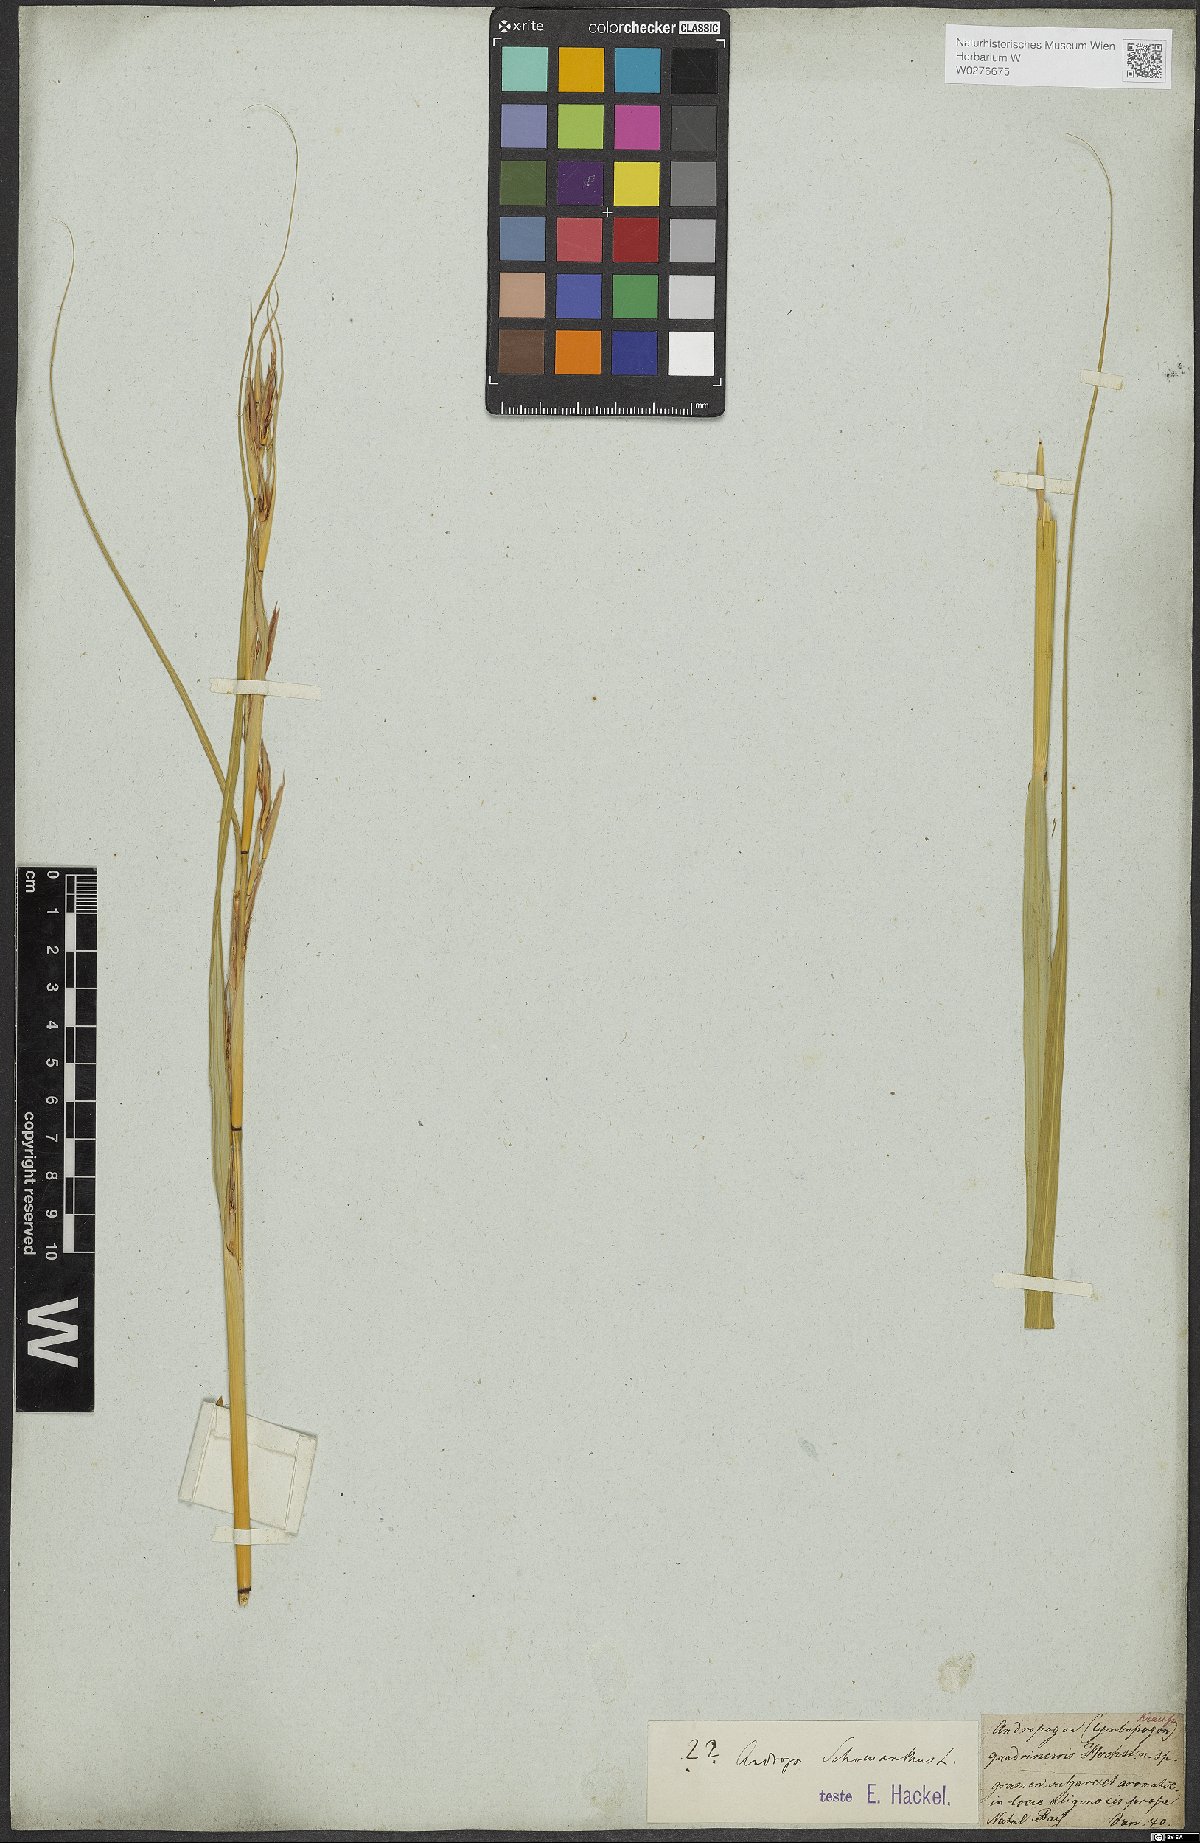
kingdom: Plantae
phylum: Tracheophyta
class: Liliopsida
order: Poales
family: Poaceae
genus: Andropogon
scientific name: Andropogon
